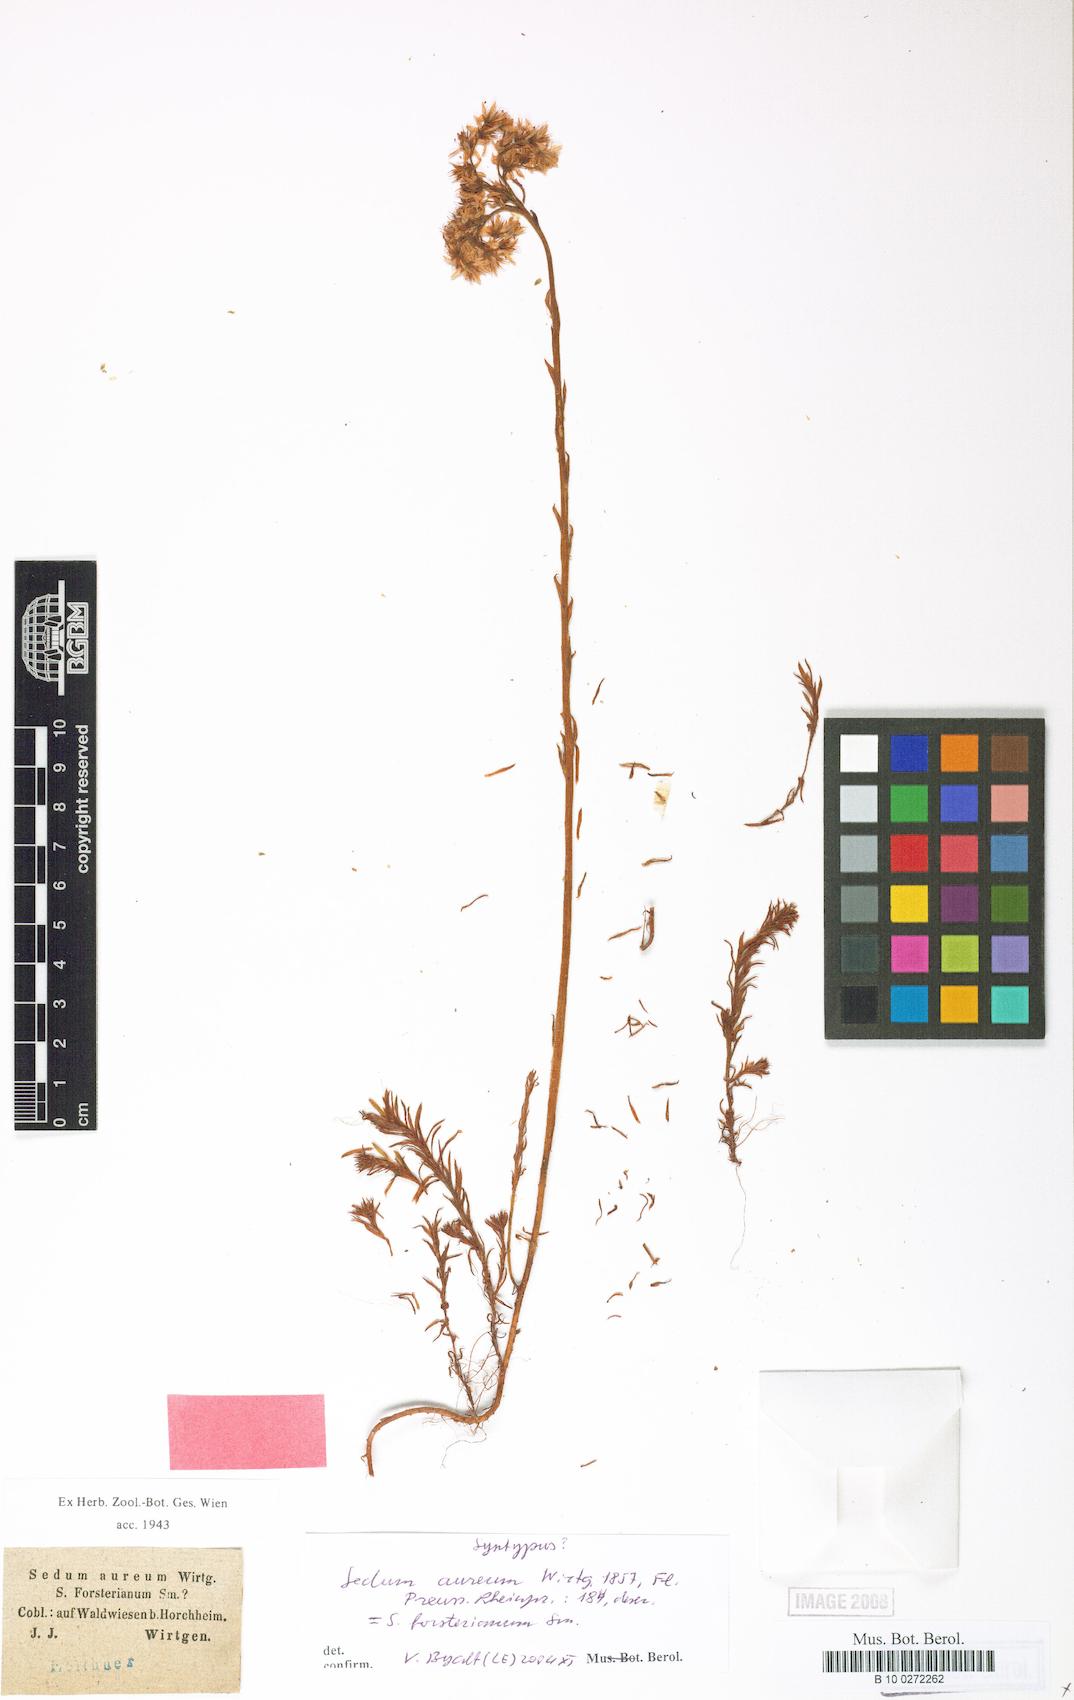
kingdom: Plantae
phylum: Tracheophyta
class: Magnoliopsida
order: Saxifragales
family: Crassulaceae
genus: Petrosedum
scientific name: Petrosedum forsterianum
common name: Forster's stonecrop
